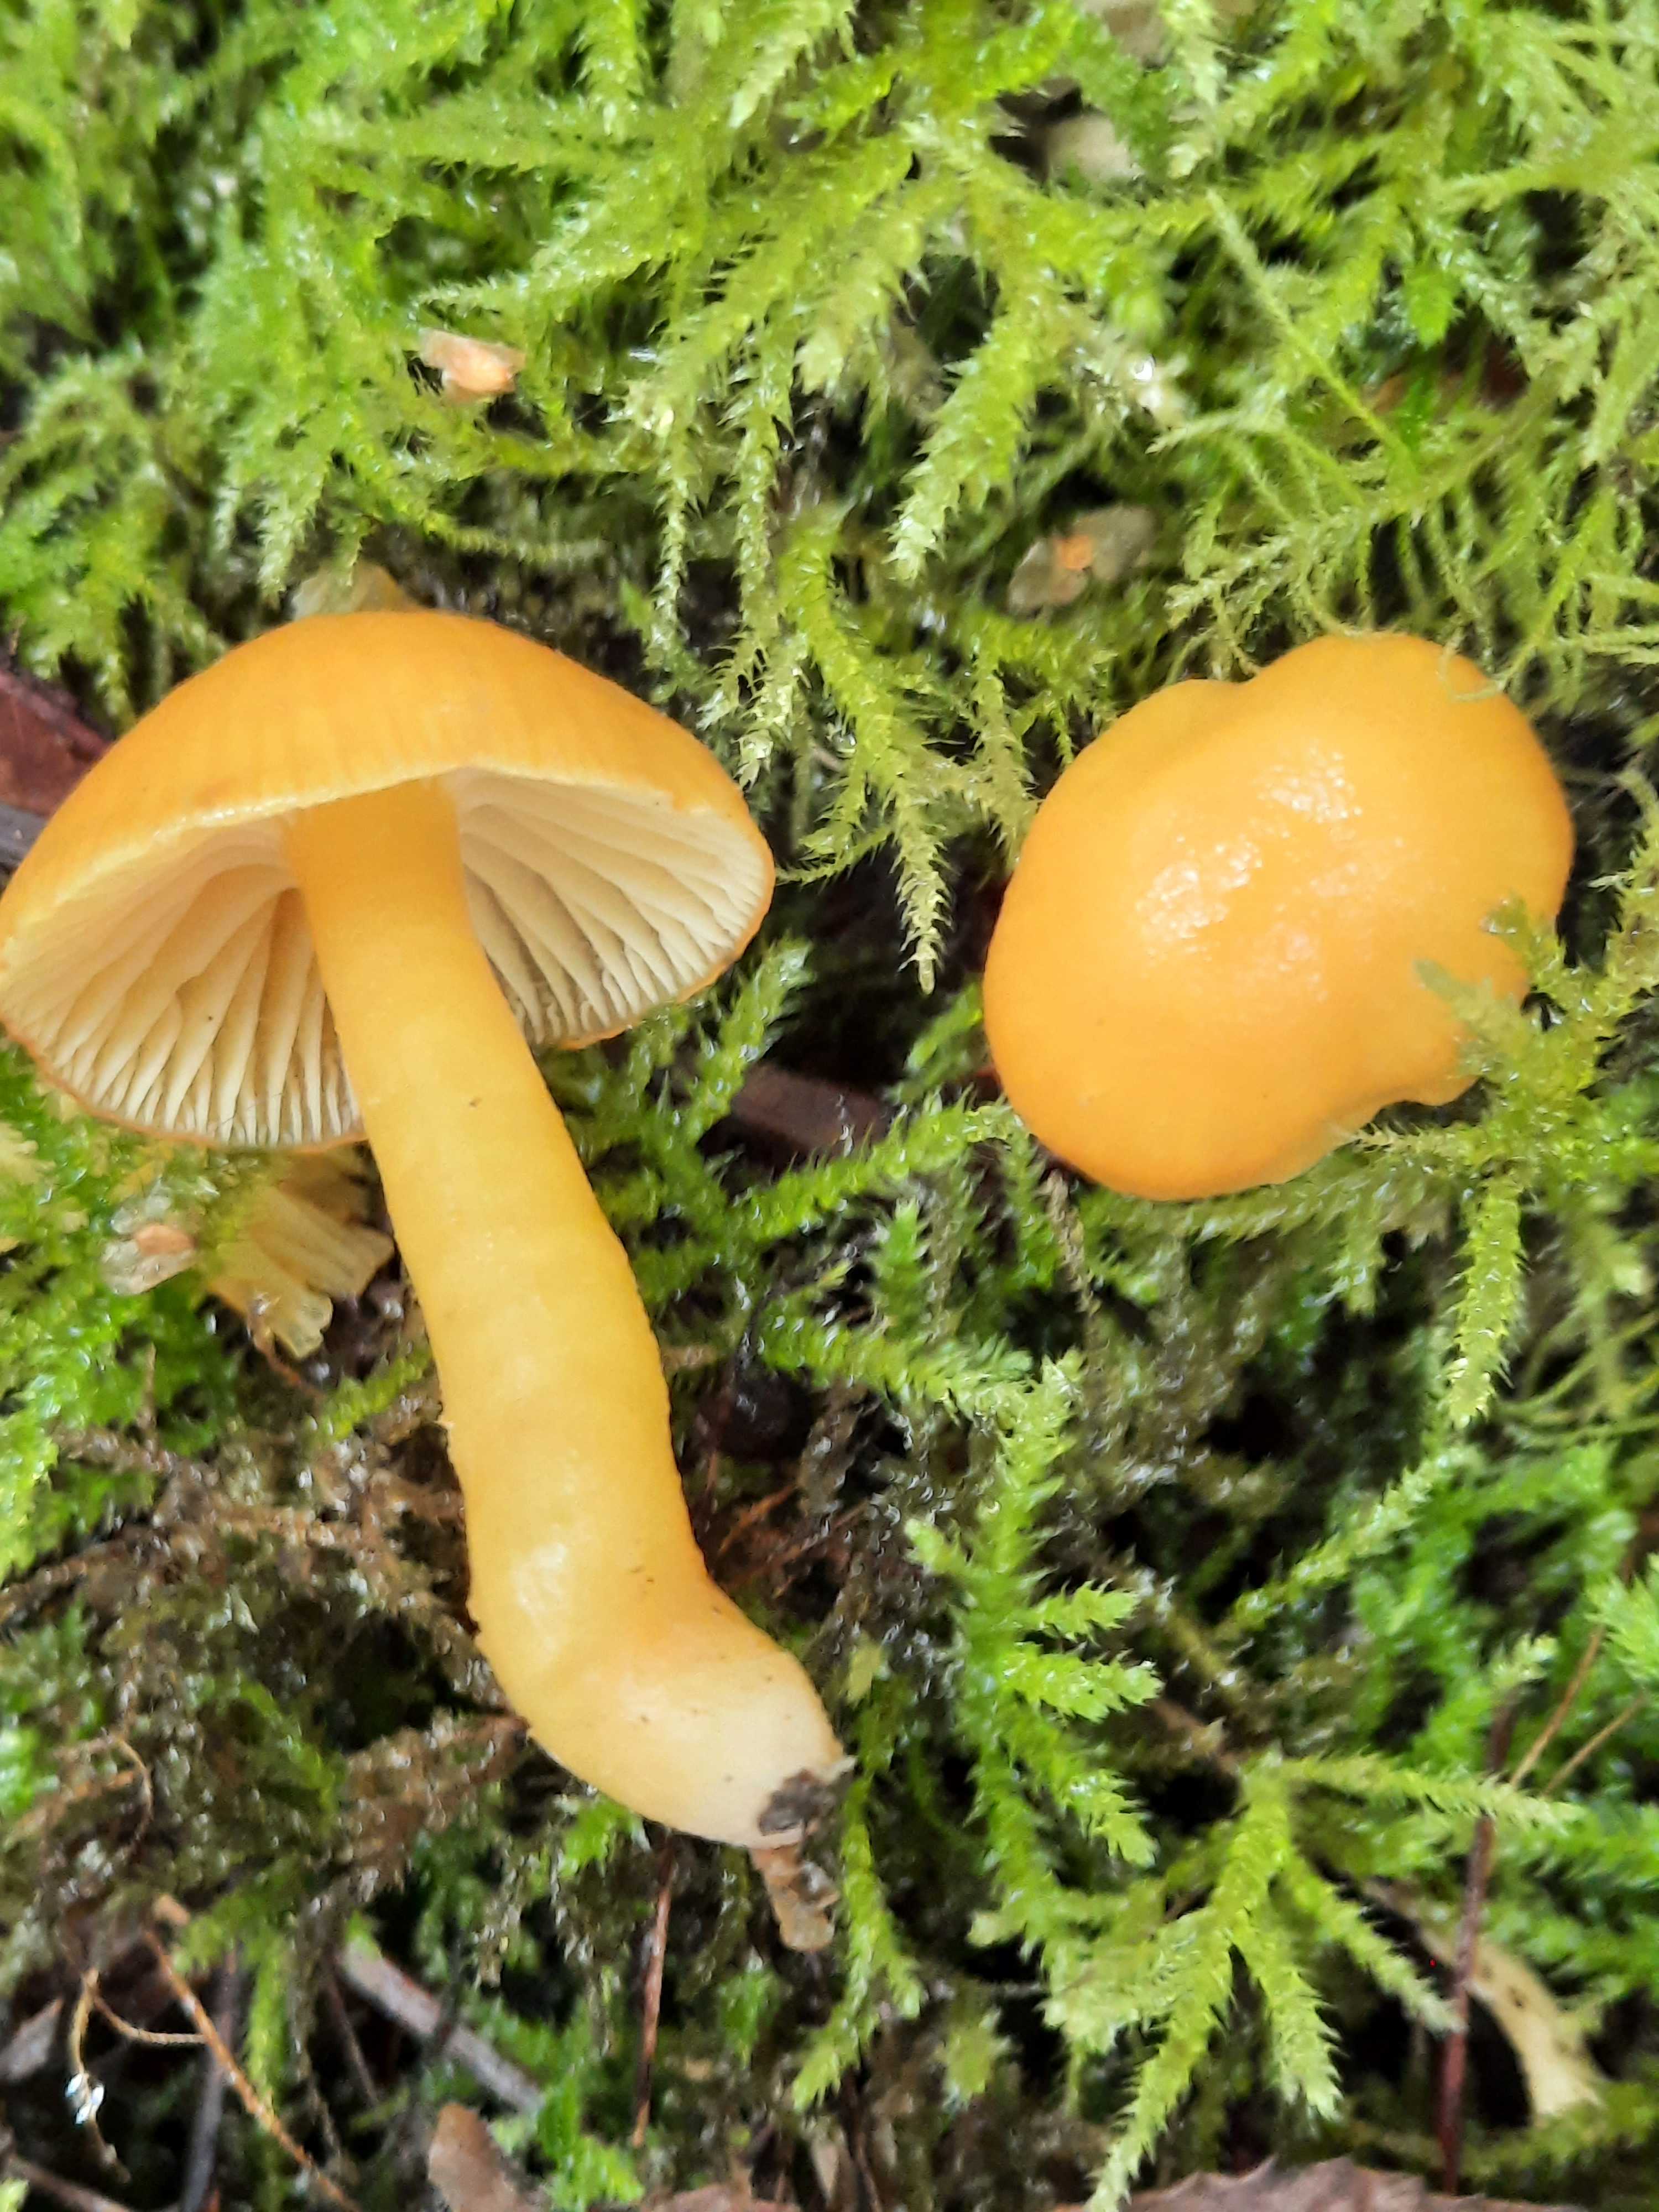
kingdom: Fungi
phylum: Basidiomycota
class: Agaricomycetes
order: Agaricales
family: Hygrophoraceae
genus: Hygrocybe
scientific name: Hygrocybe ceracea
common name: voksgul vokshat
